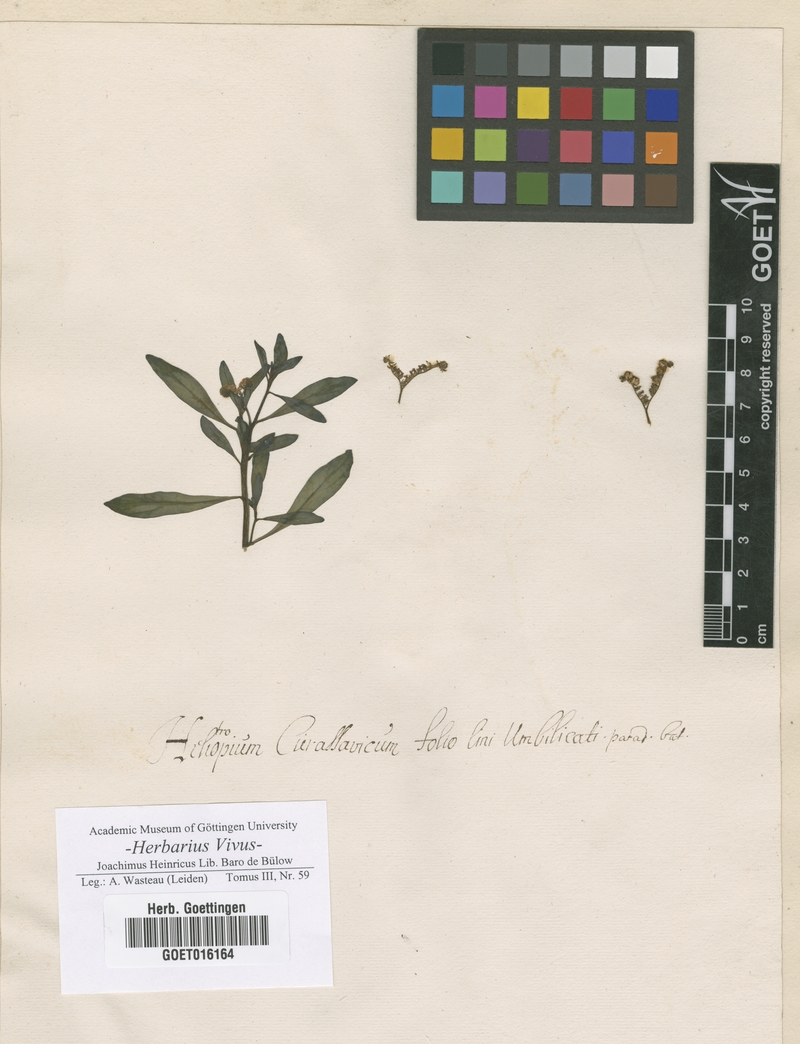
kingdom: Plantae
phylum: Tracheophyta
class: Magnoliopsida
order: Boraginales
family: Heliotropiaceae
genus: Heliotropium
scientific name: Heliotropium
